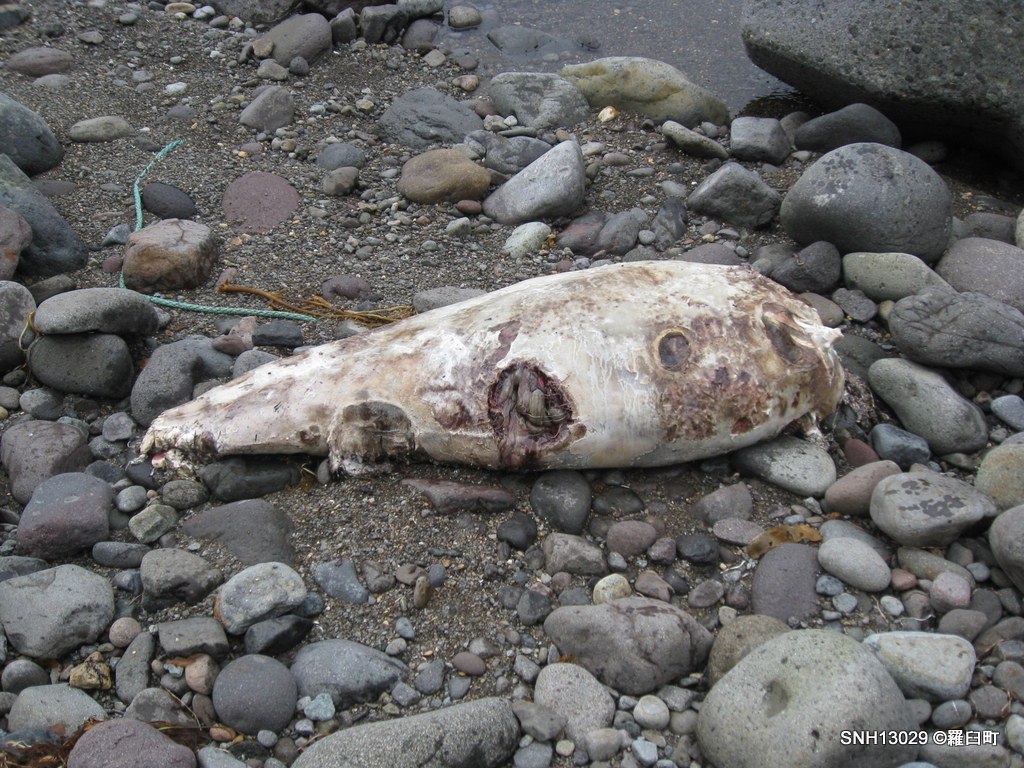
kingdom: Animalia
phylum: Chordata
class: Mammalia
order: Cetacea
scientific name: Cetacea
